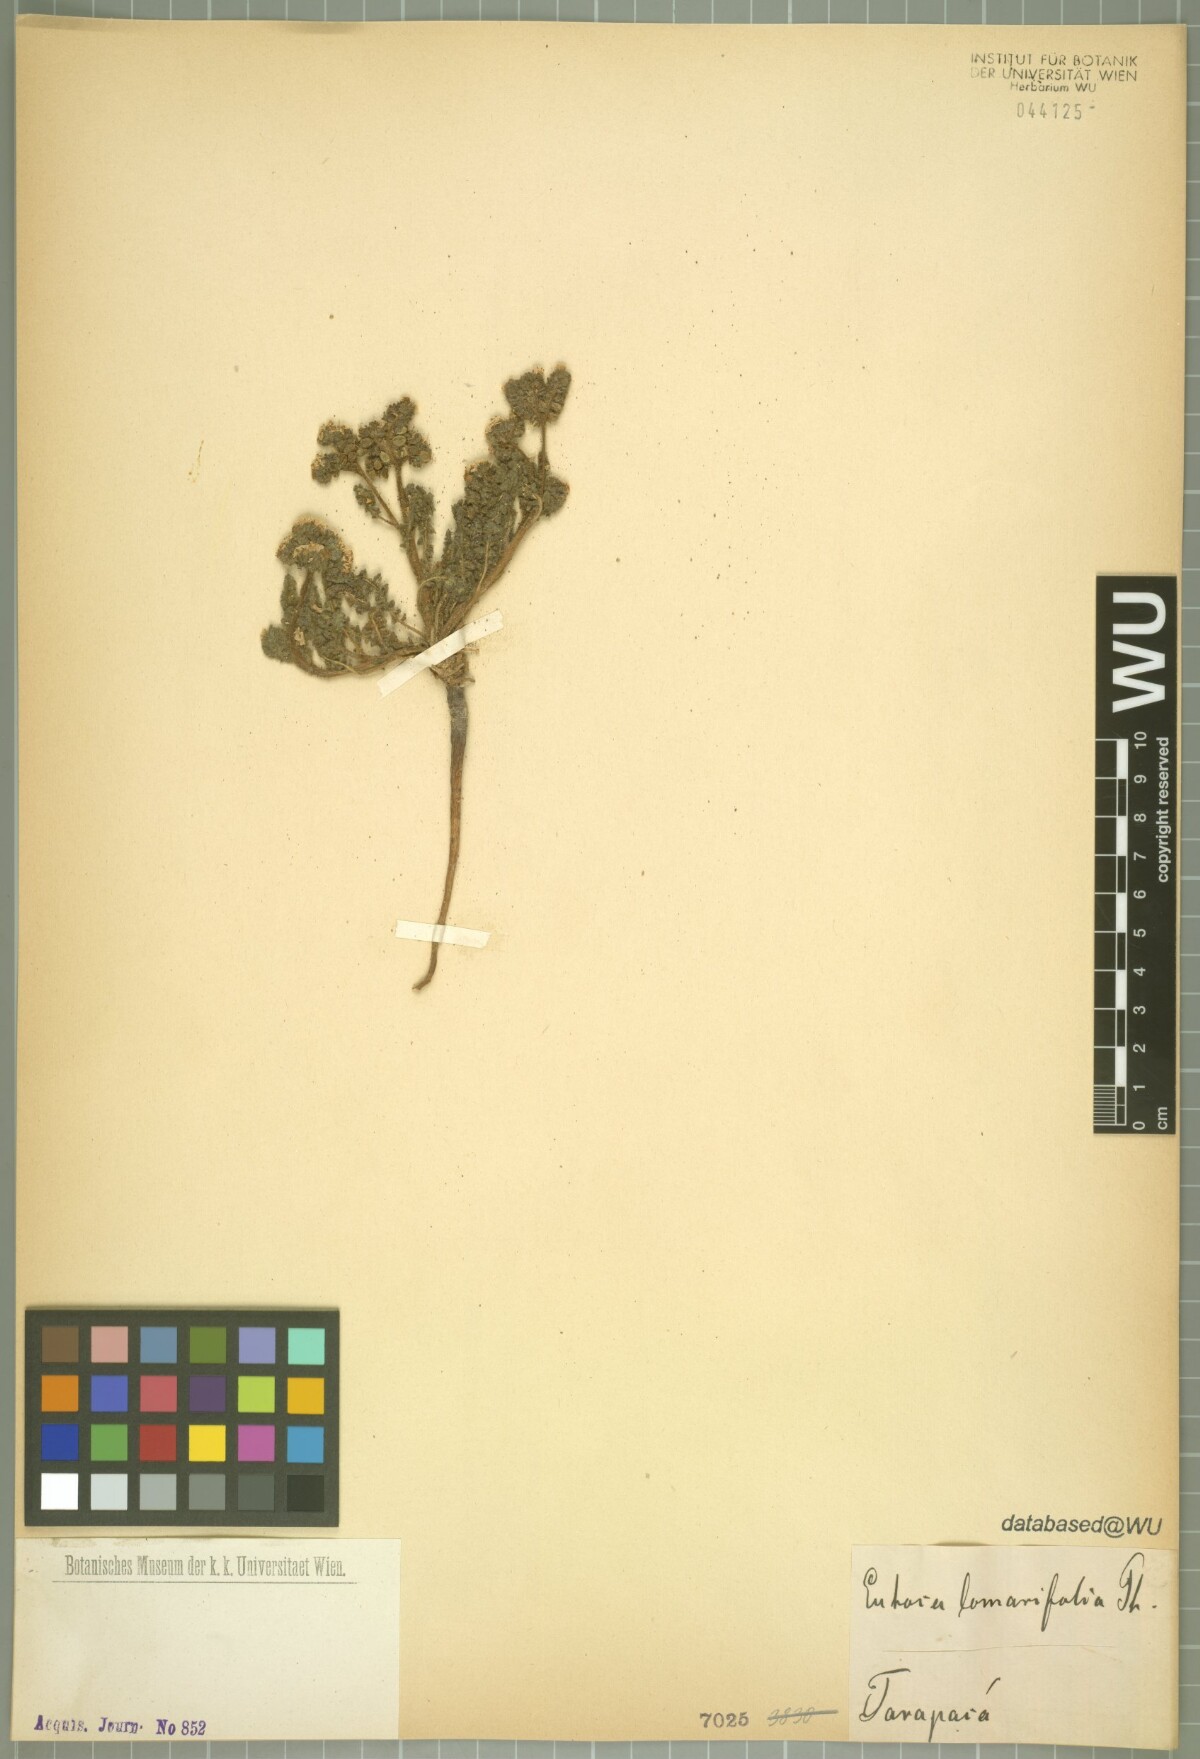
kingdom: Plantae
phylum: Tracheophyta
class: Magnoliopsida
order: Boraginales
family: Hydrophyllaceae
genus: Phacelia
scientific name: Phacelia Eutoca lomarifolia
